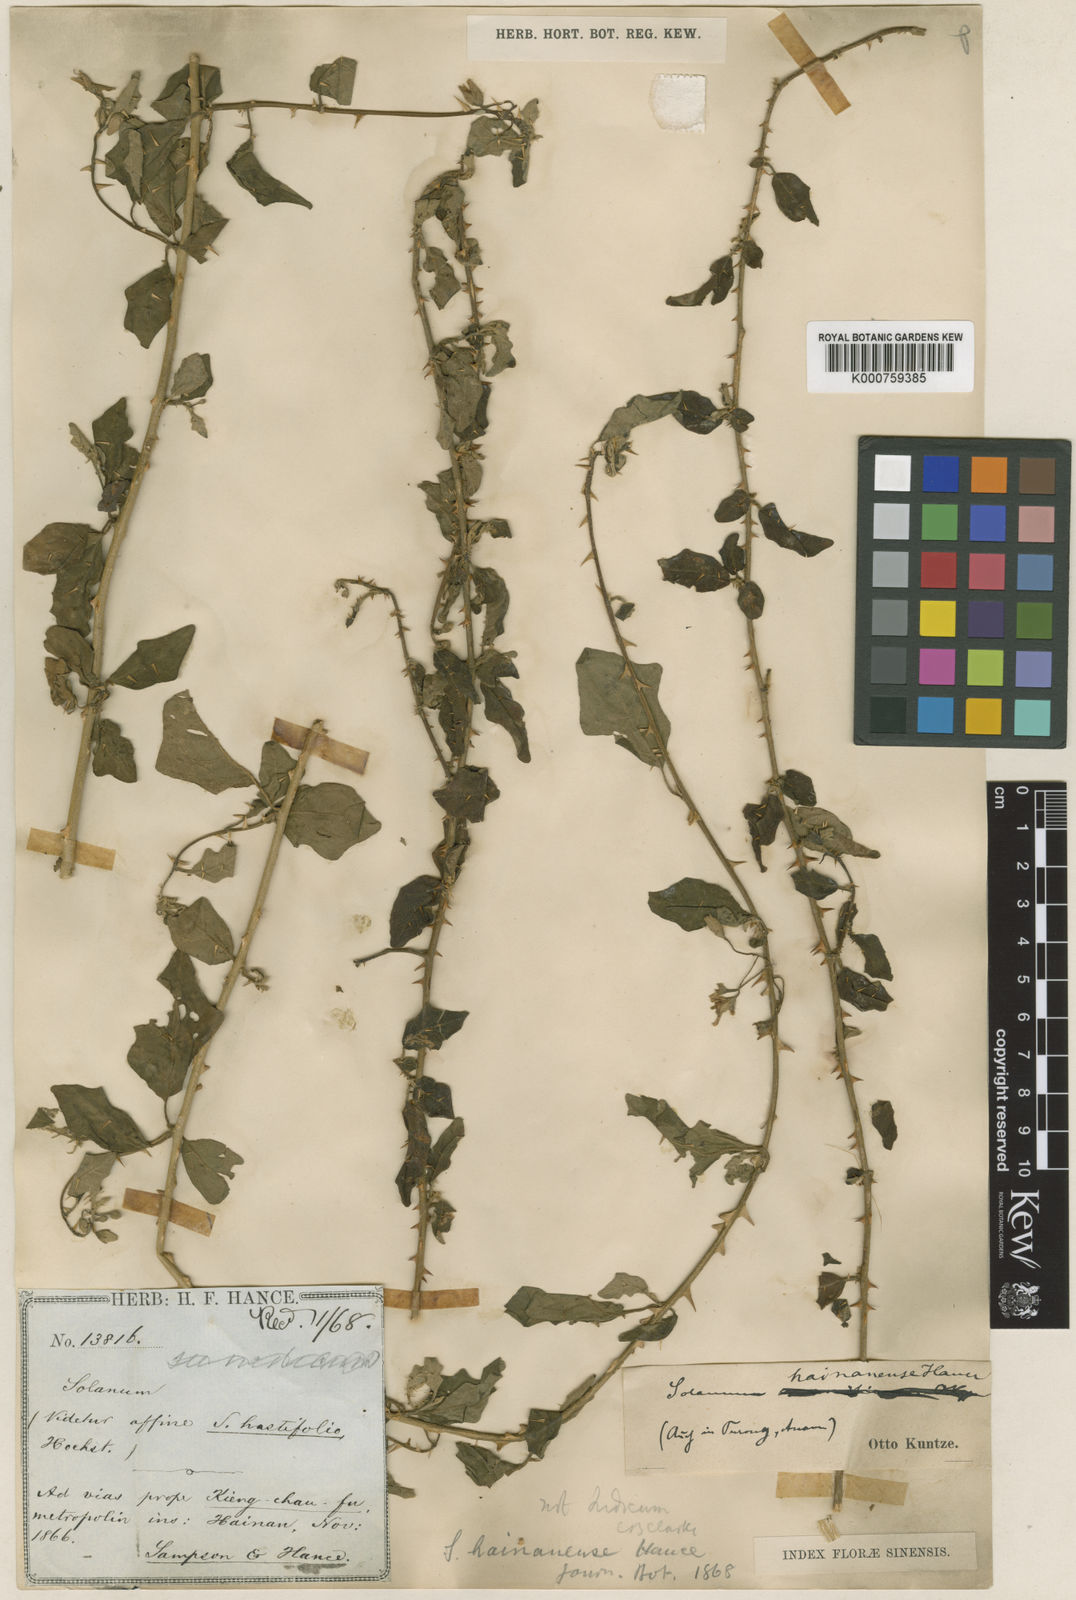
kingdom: Plantae
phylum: Tracheophyta
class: Magnoliopsida
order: Solanales
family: Solanaceae
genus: Solanum
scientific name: Solanum procumbens
